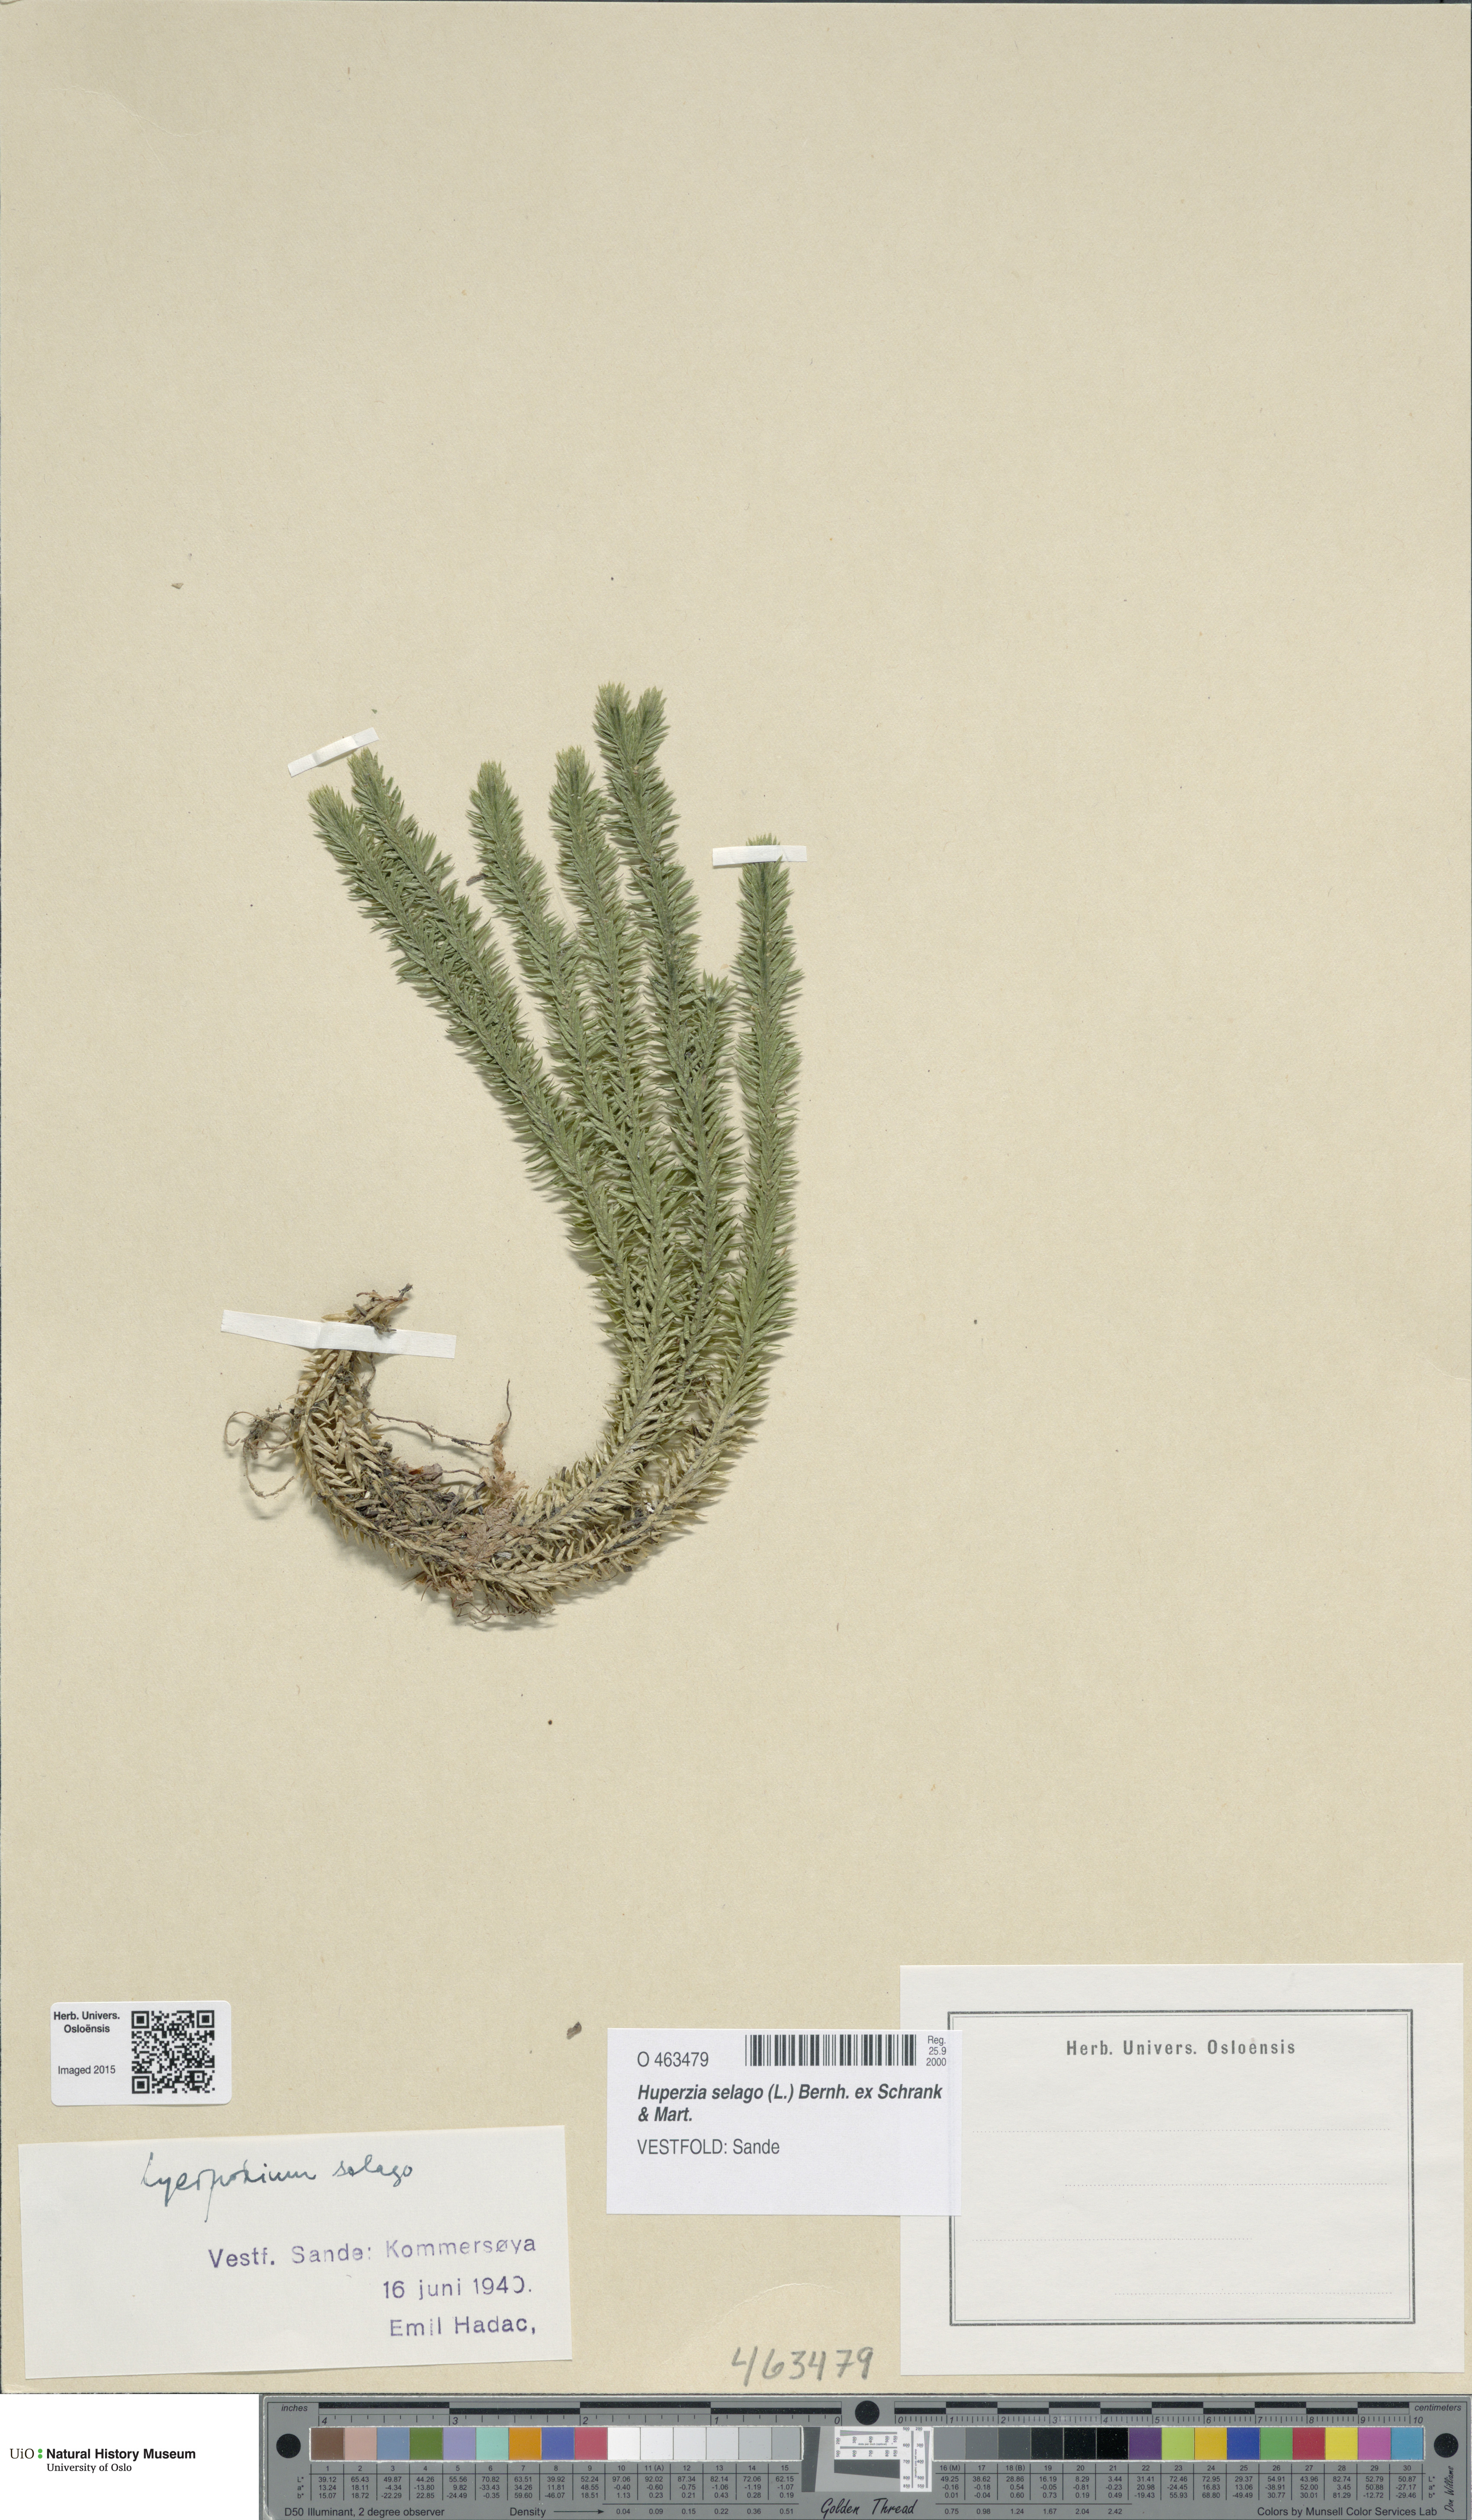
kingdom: Plantae
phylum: Tracheophyta
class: Lycopodiopsida
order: Lycopodiales
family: Lycopodiaceae
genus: Huperzia
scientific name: Huperzia selago
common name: Northern firmoss
